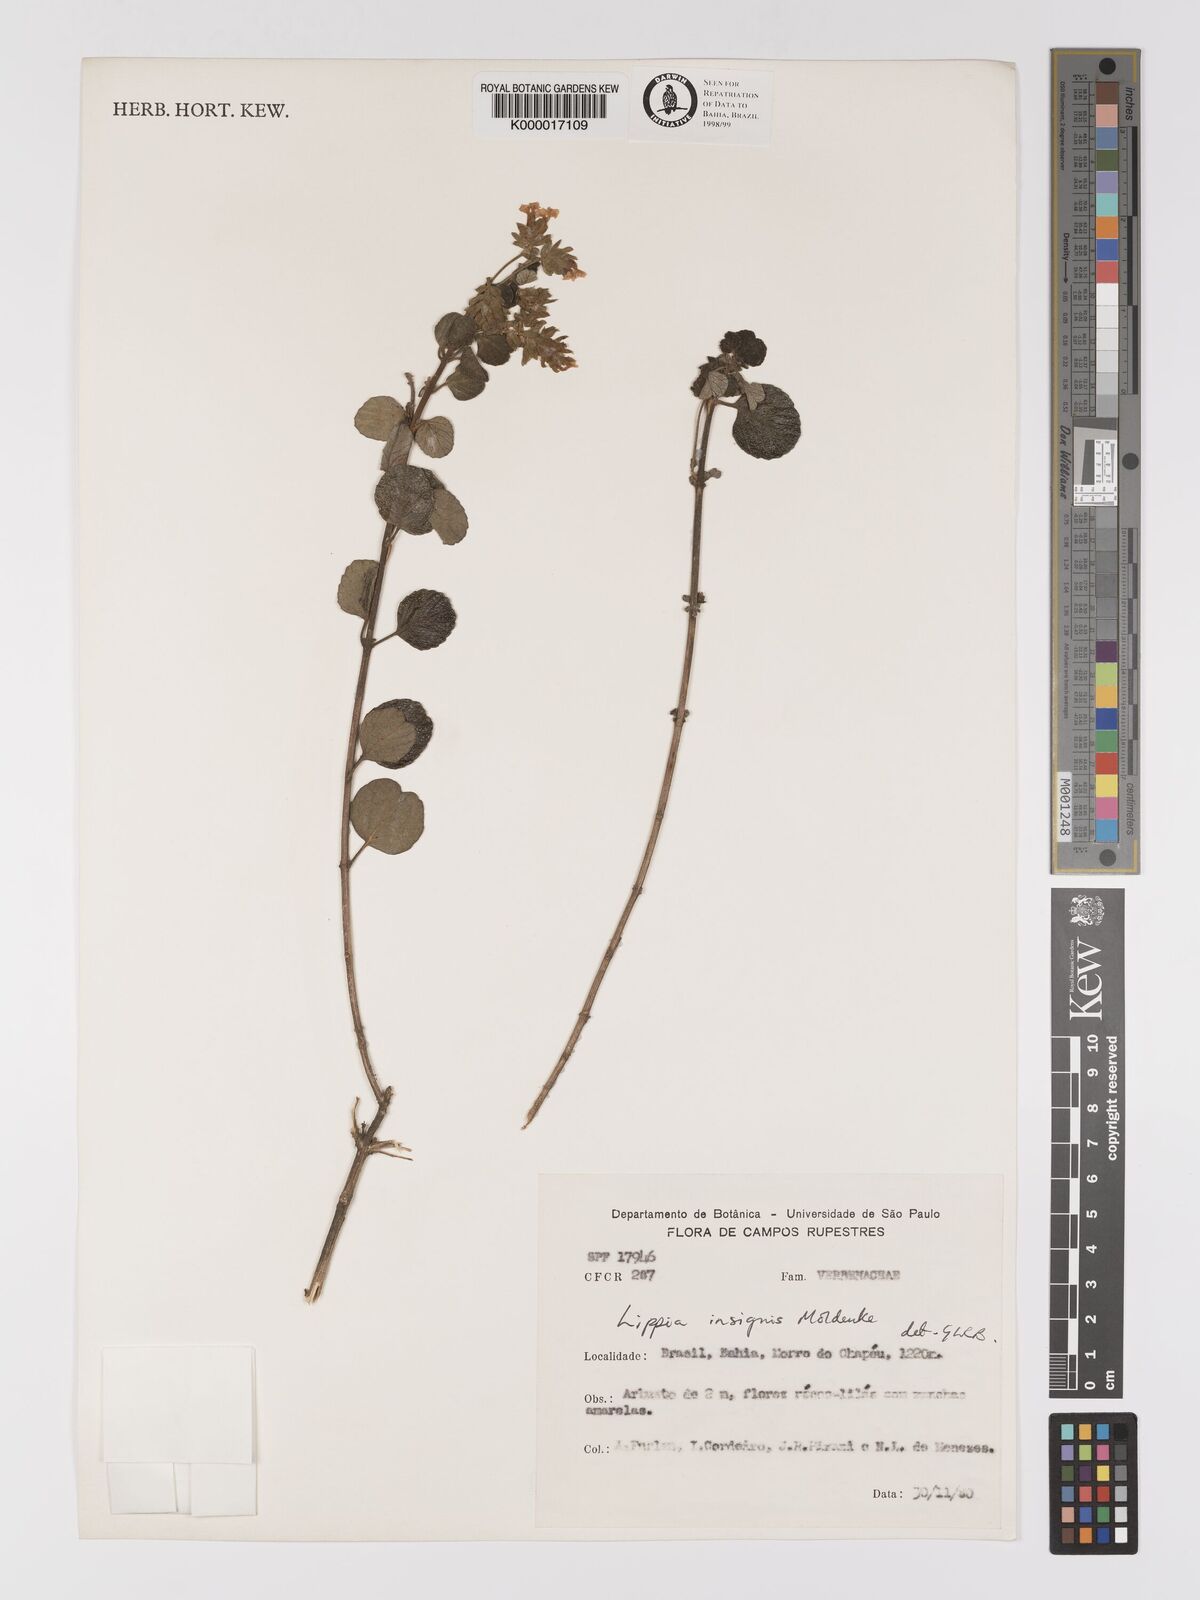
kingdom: Plantae
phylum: Tracheophyta
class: Magnoliopsida
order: Lamiales
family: Verbenaceae
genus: Lippia
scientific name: Lippia insignis
